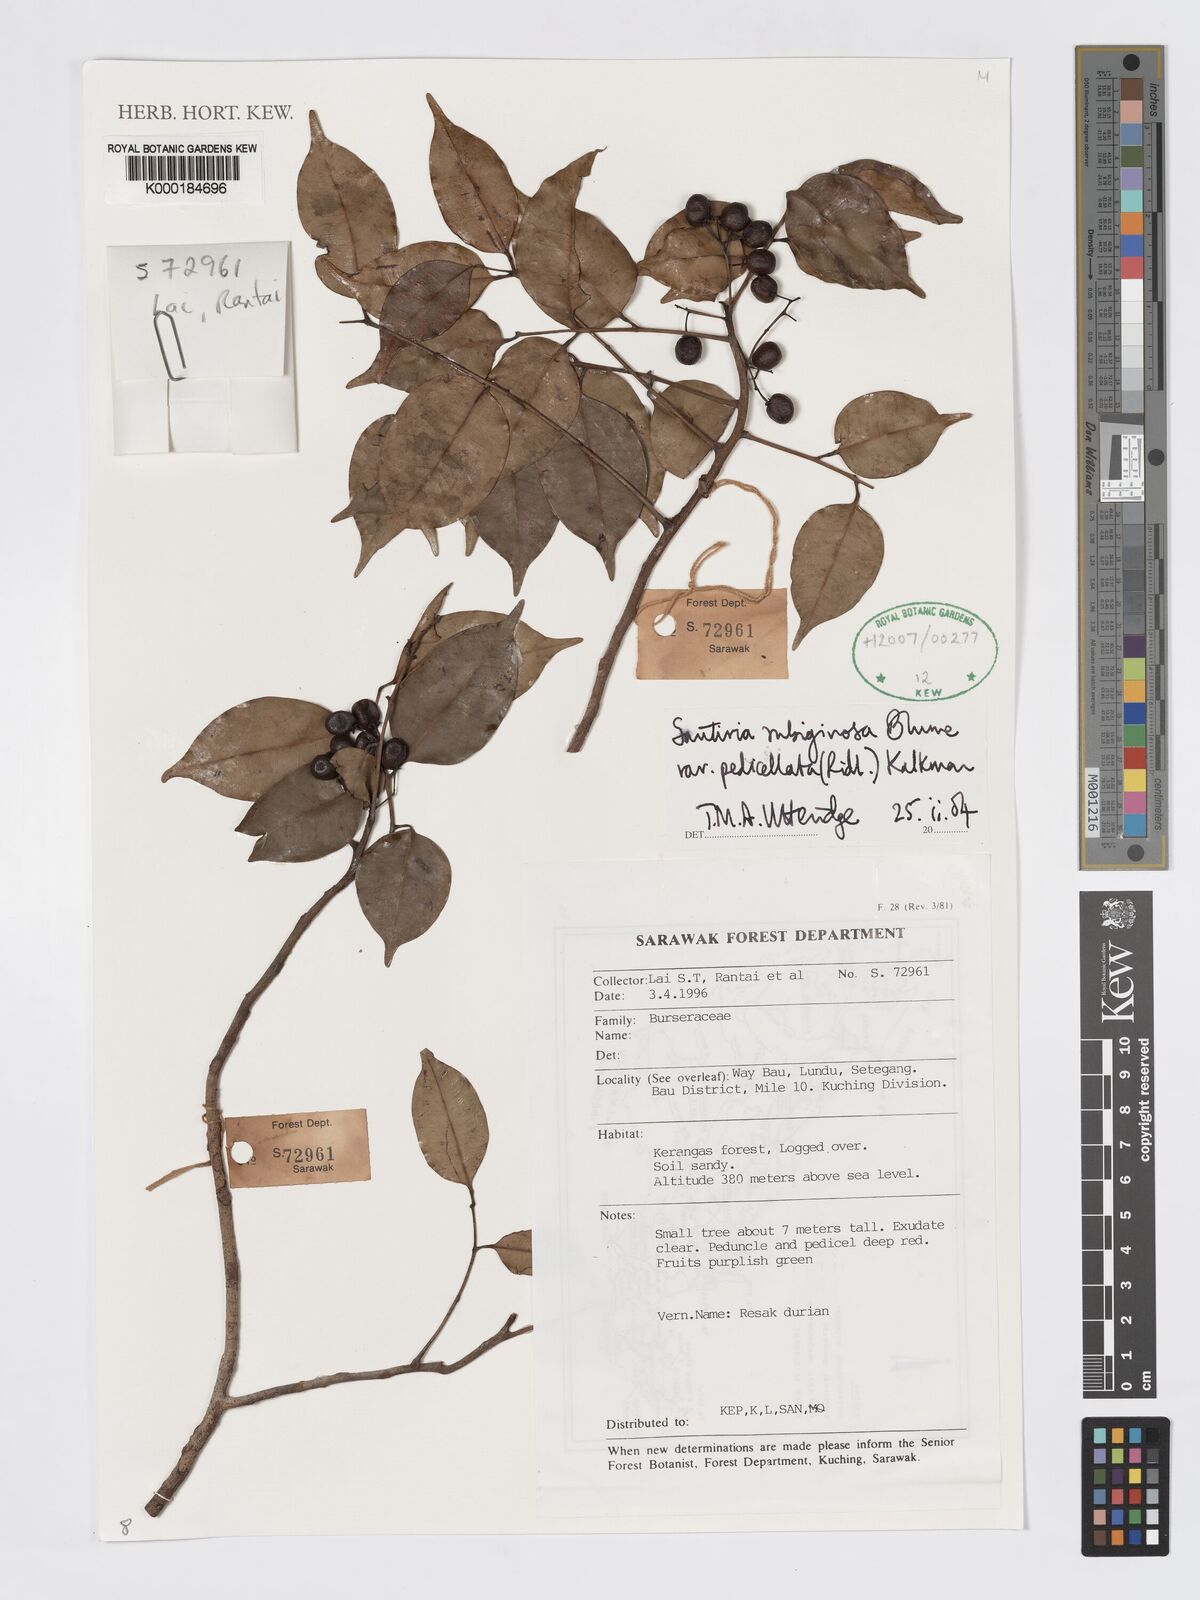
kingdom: Plantae
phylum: Tracheophyta
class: Magnoliopsida
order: Sapindales
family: Burseraceae
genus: Santiria
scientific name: Santiria rubiginosa
